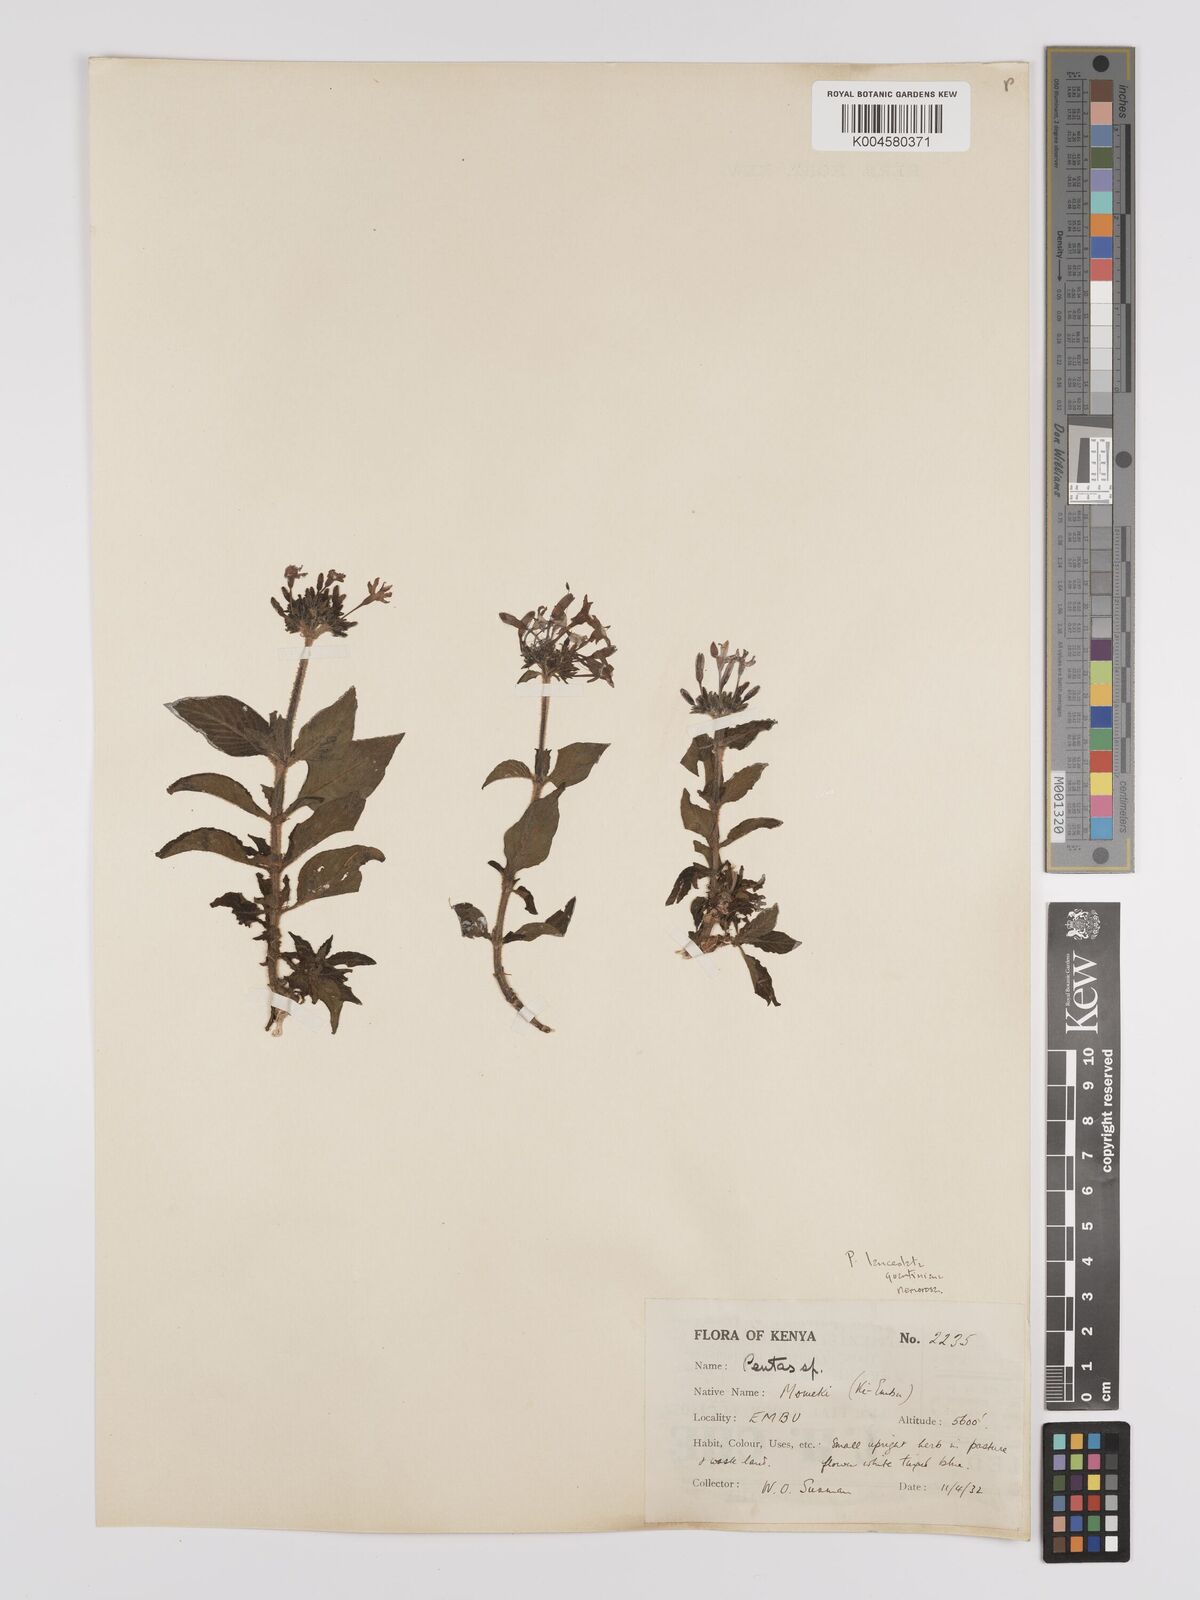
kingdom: Plantae
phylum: Tracheophyta
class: Magnoliopsida
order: Gentianales
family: Rubiaceae
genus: Pentas
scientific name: Pentas lanceolata
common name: Egyptian starcluster
